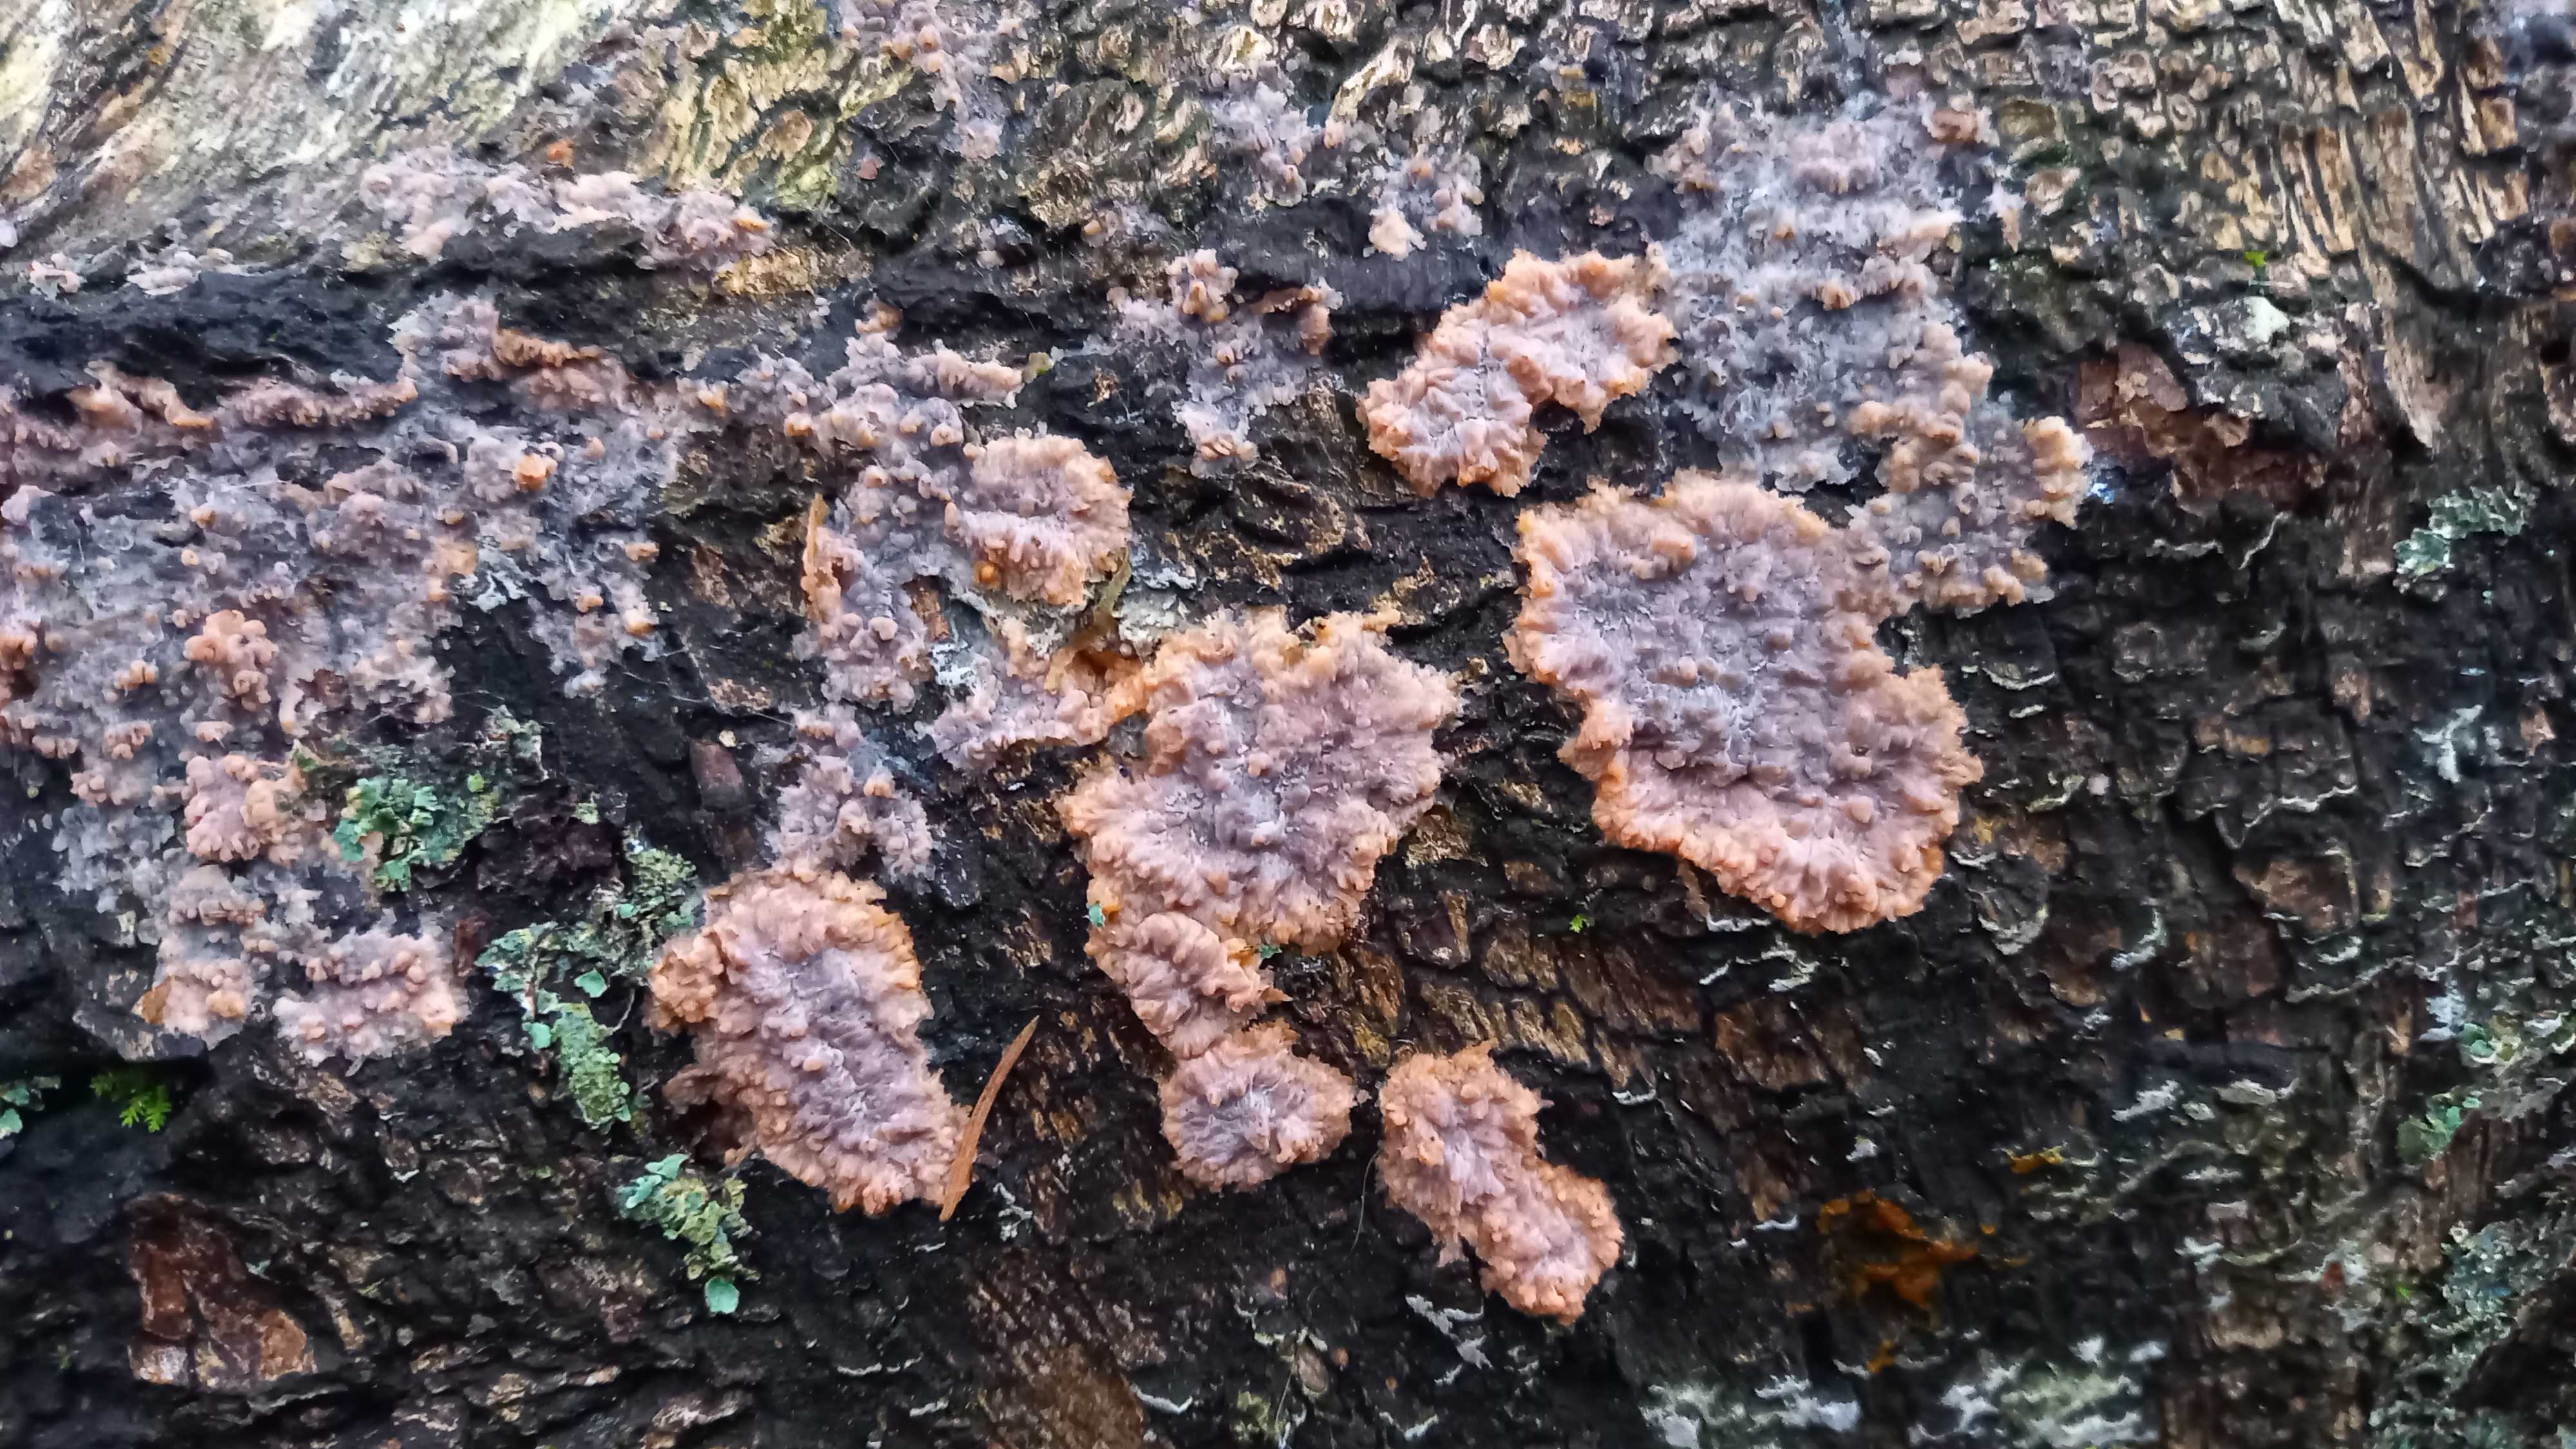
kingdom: Fungi
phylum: Basidiomycota
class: Agaricomycetes
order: Polyporales
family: Meruliaceae
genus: Phlebia
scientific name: Phlebia radiata
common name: stråle-åresvamp
